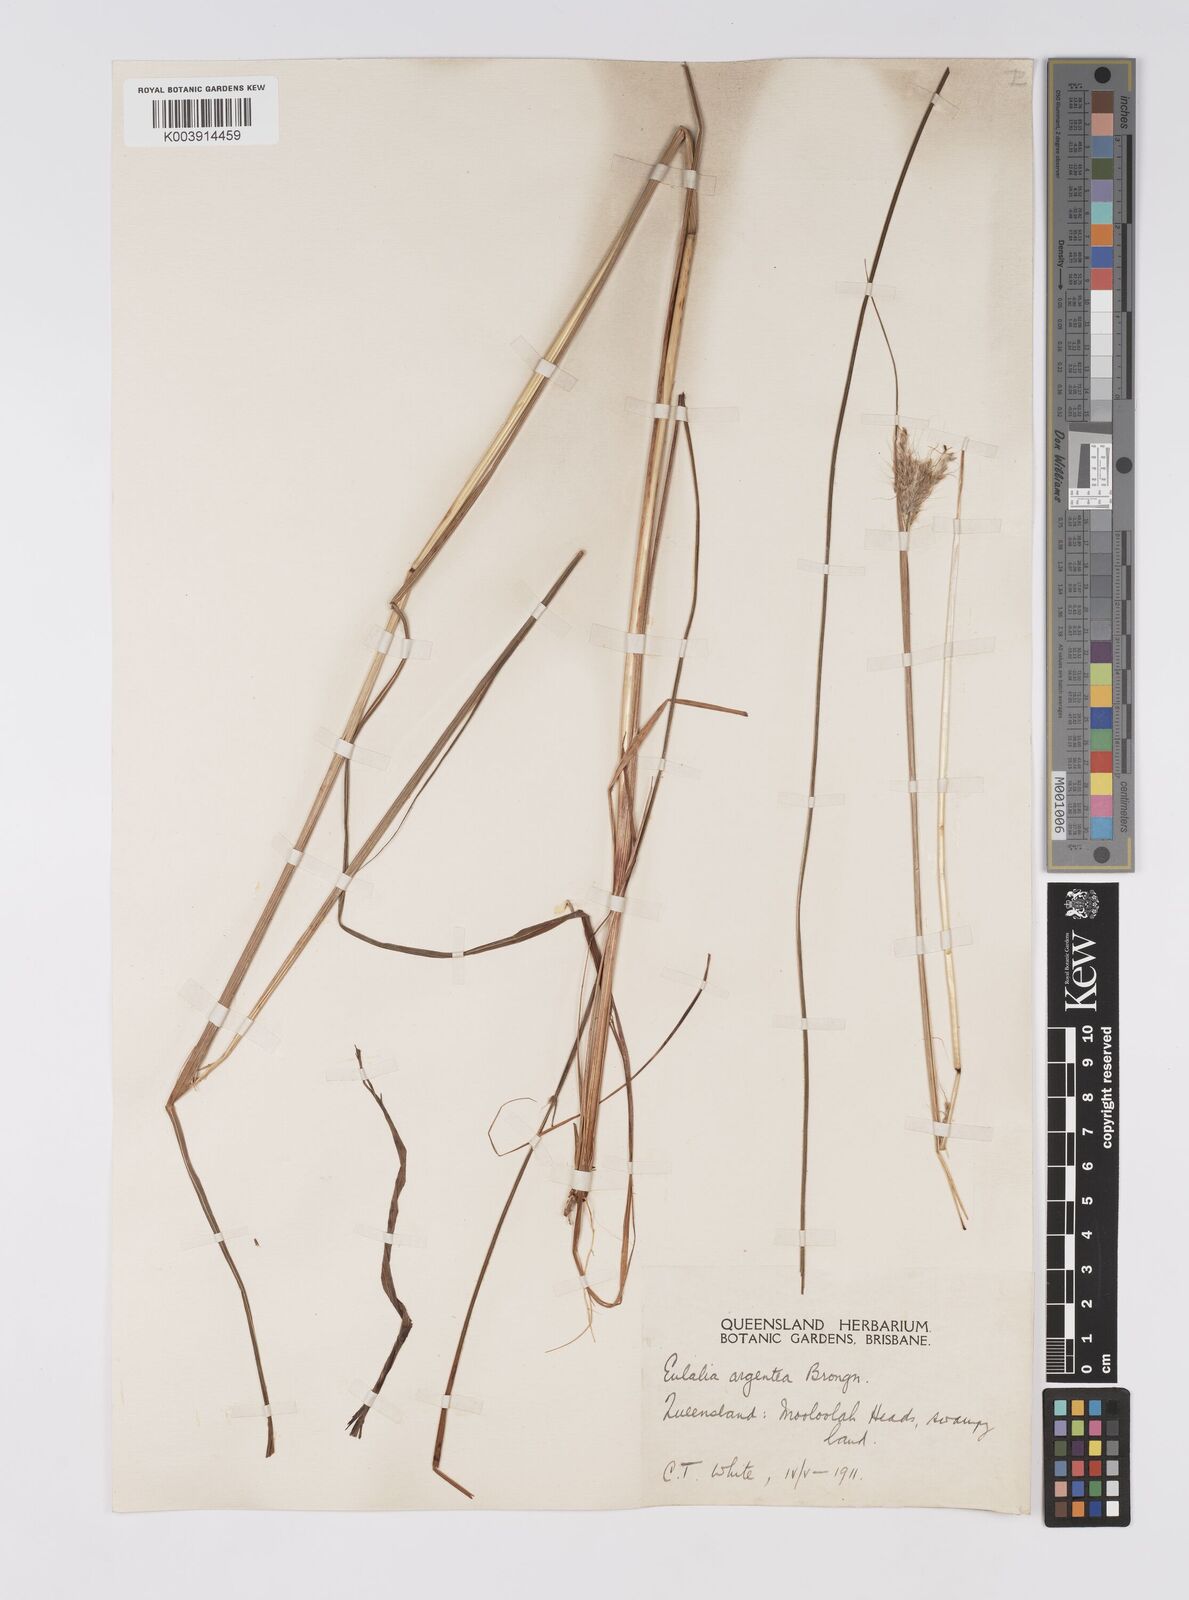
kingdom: Plantae
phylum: Tracheophyta
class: Liliopsida
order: Poales
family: Poaceae
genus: Pseudopogonatherum
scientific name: Pseudopogonatherum trispicatum
